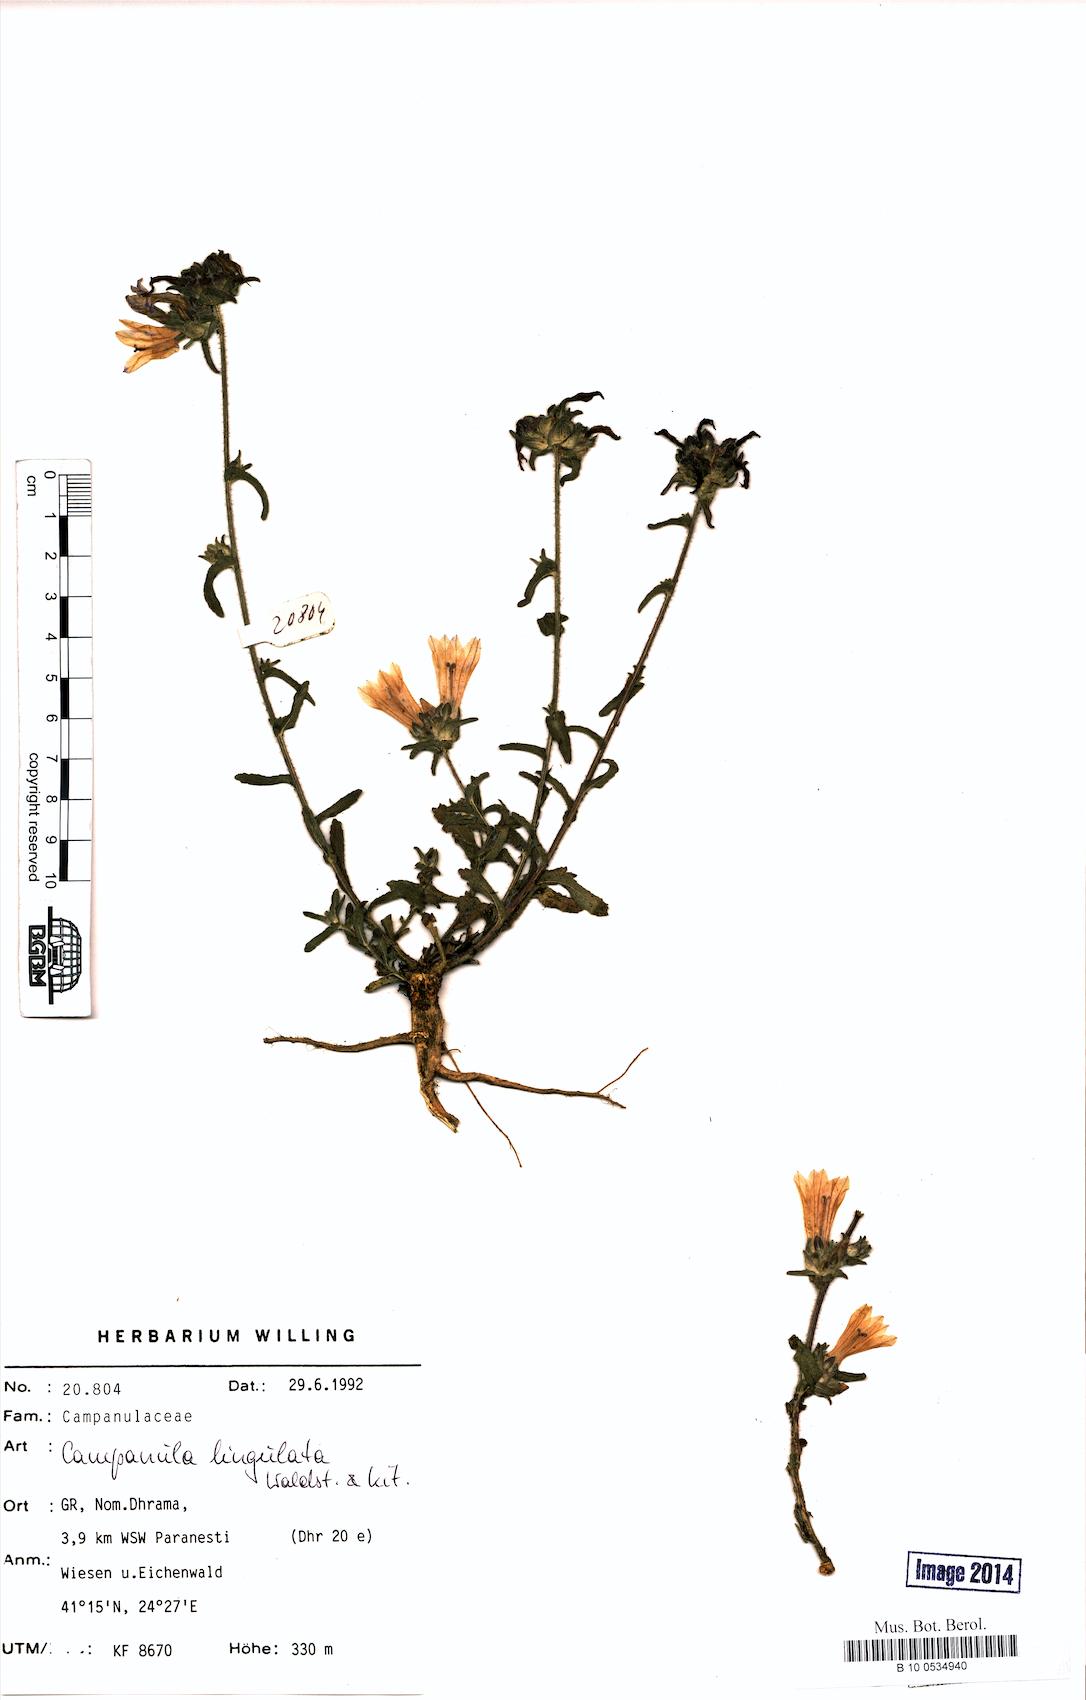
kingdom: Plantae
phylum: Tracheophyta
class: Magnoliopsida
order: Asterales
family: Campanulaceae
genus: Campanula
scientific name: Campanula lingulata
